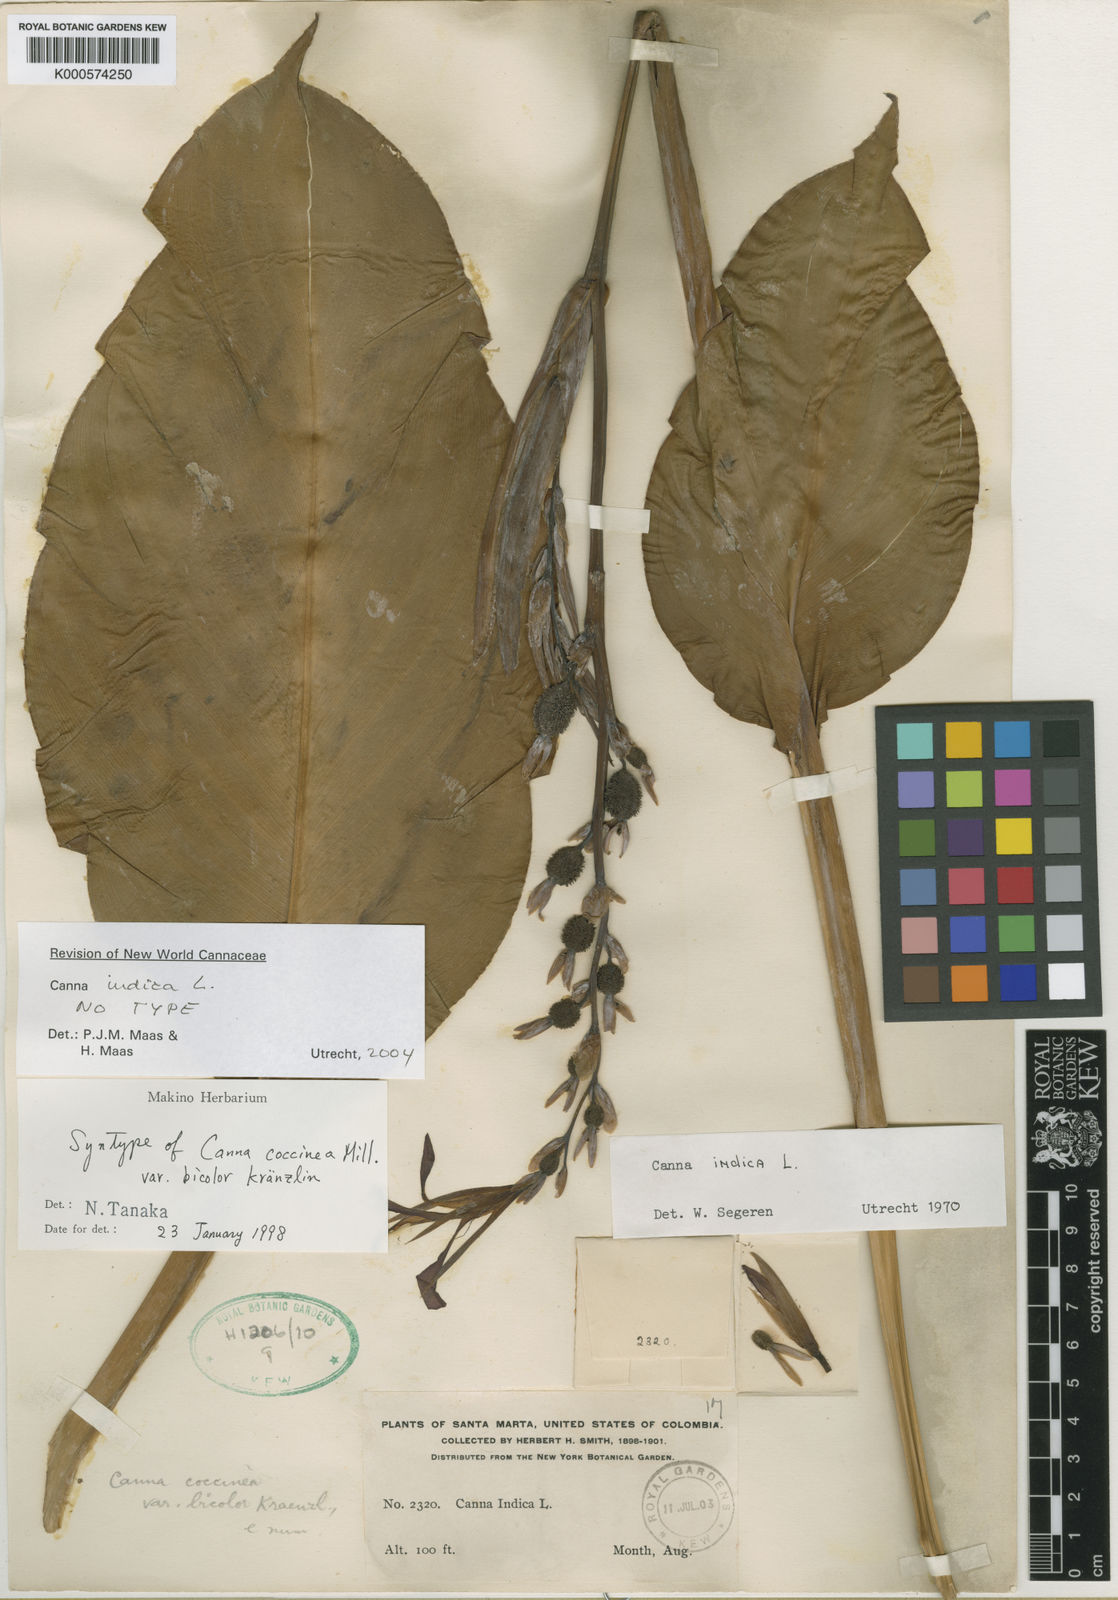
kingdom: Plantae
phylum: Tracheophyta
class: Liliopsida
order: Zingiberales
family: Cannaceae
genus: Canna
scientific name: Canna indica
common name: Indian shot
